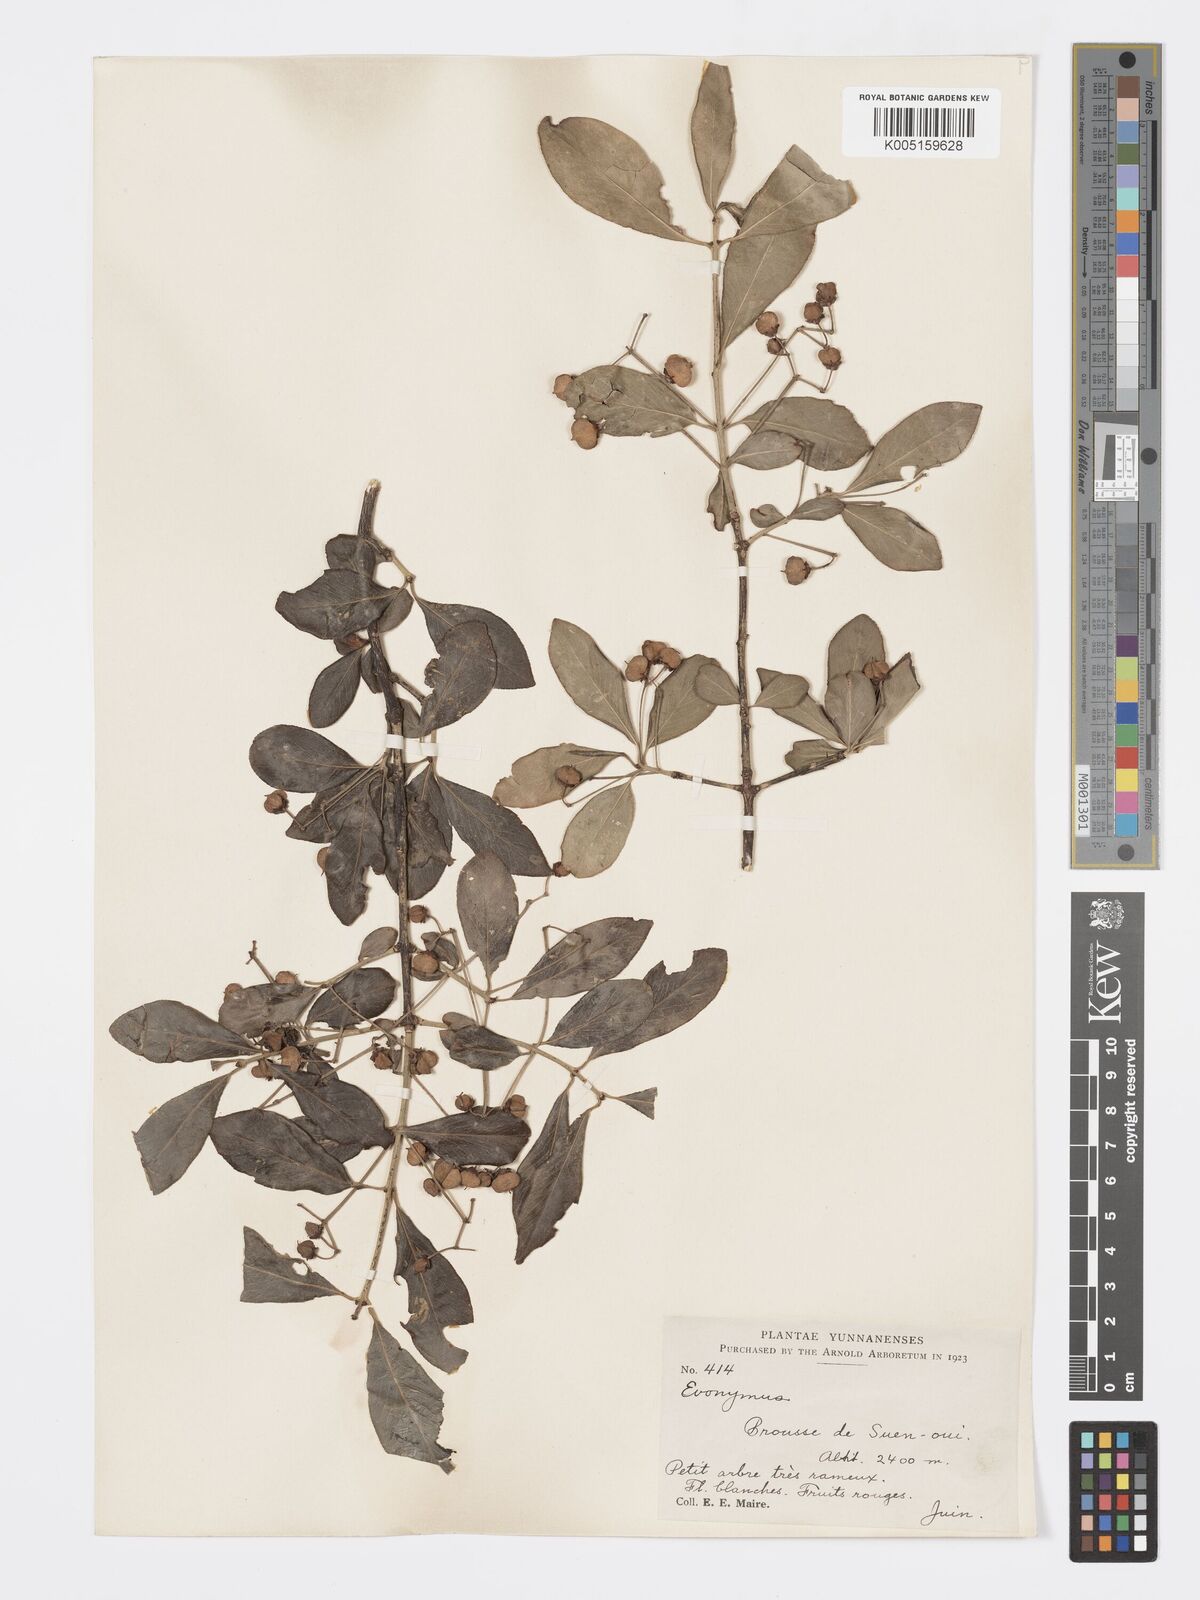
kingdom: Plantae
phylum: Tracheophyta
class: Magnoliopsida
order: Celastrales
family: Celastraceae
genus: Euonymus
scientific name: Euonymus grandiflorus
